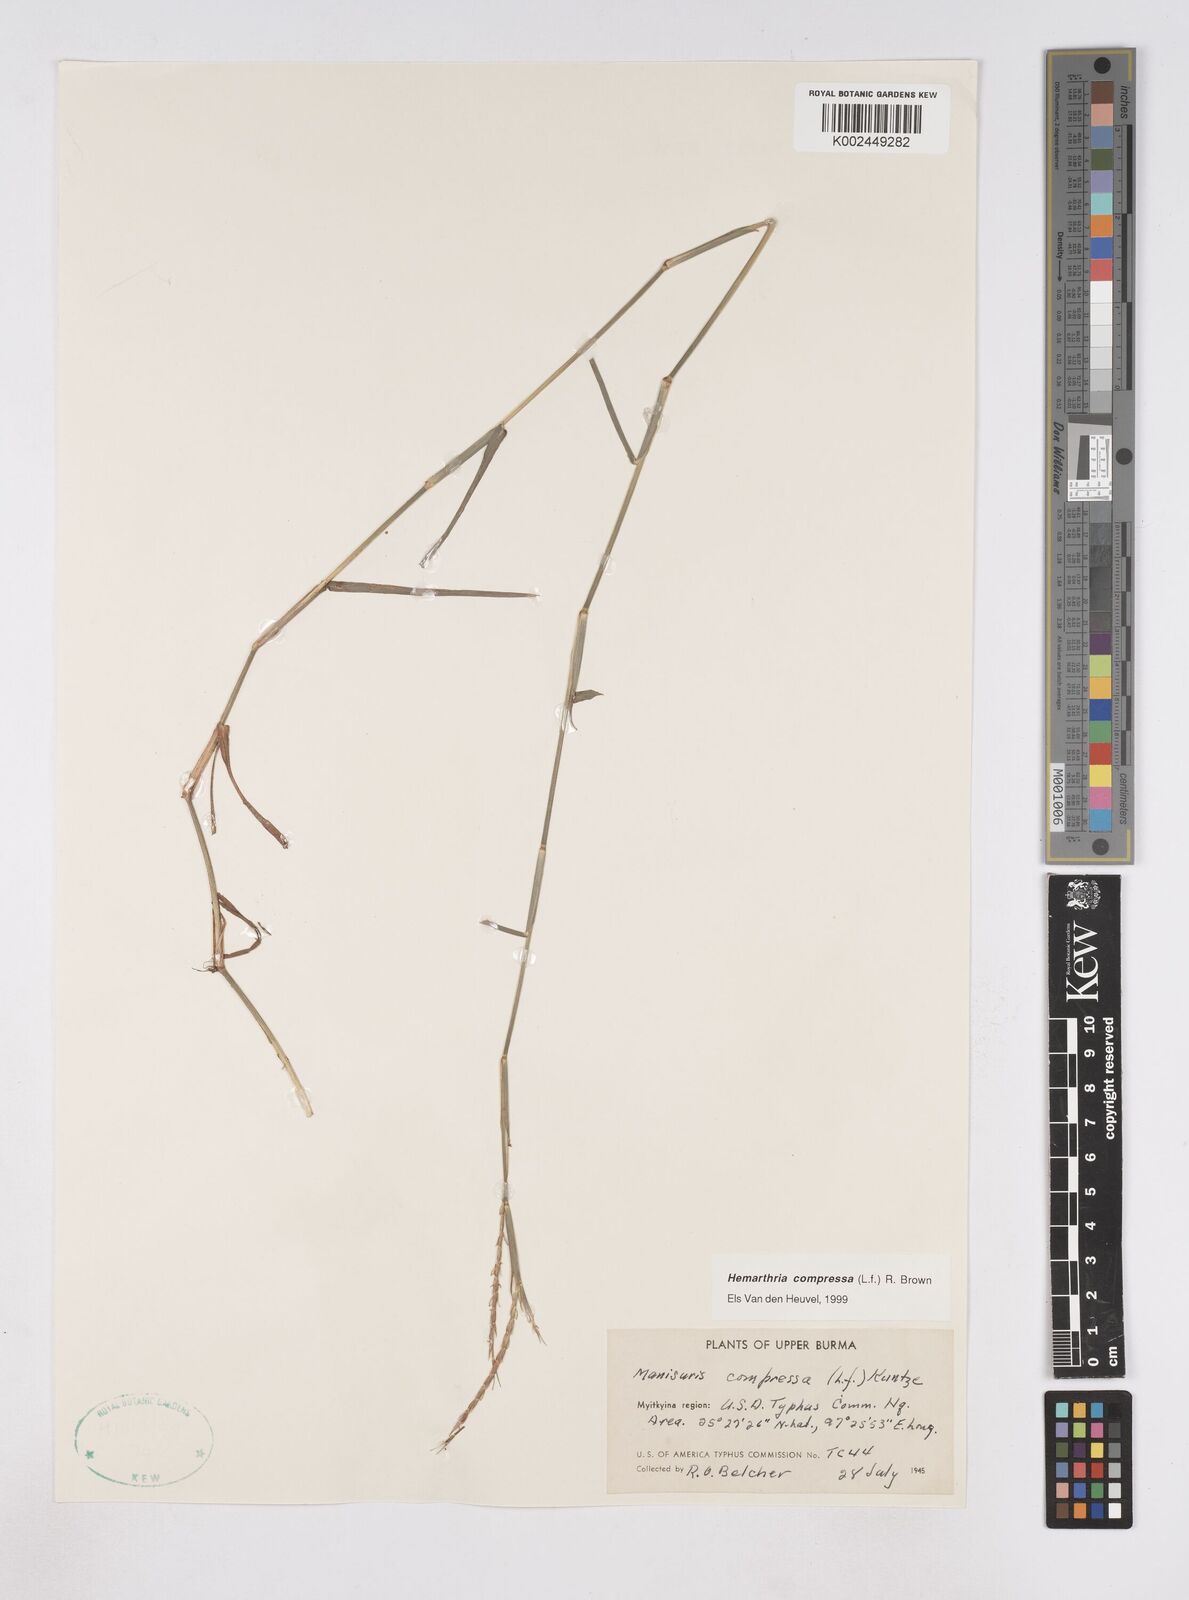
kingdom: Plantae
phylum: Tracheophyta
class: Liliopsida
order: Poales
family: Poaceae
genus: Hemarthria
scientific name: Hemarthria compressa
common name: Whip grass
